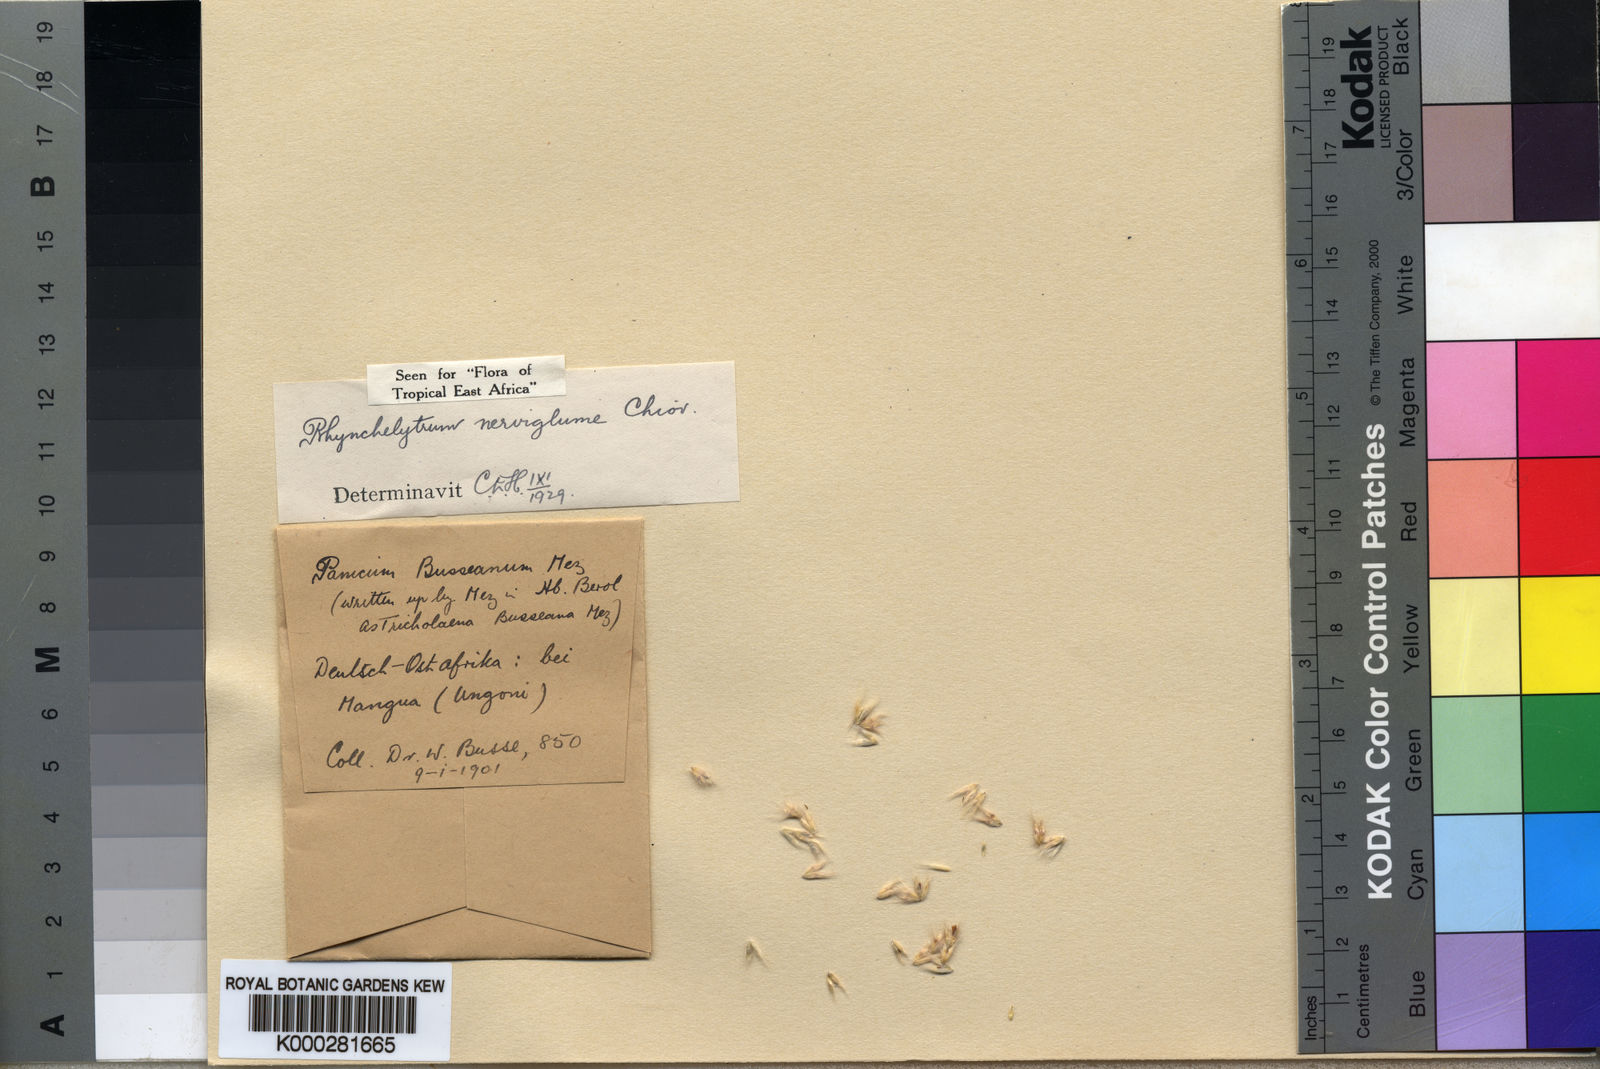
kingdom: Plantae
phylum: Tracheophyta
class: Liliopsida
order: Poales
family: Poaceae
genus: Melinis
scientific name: Melinis nerviglumis
